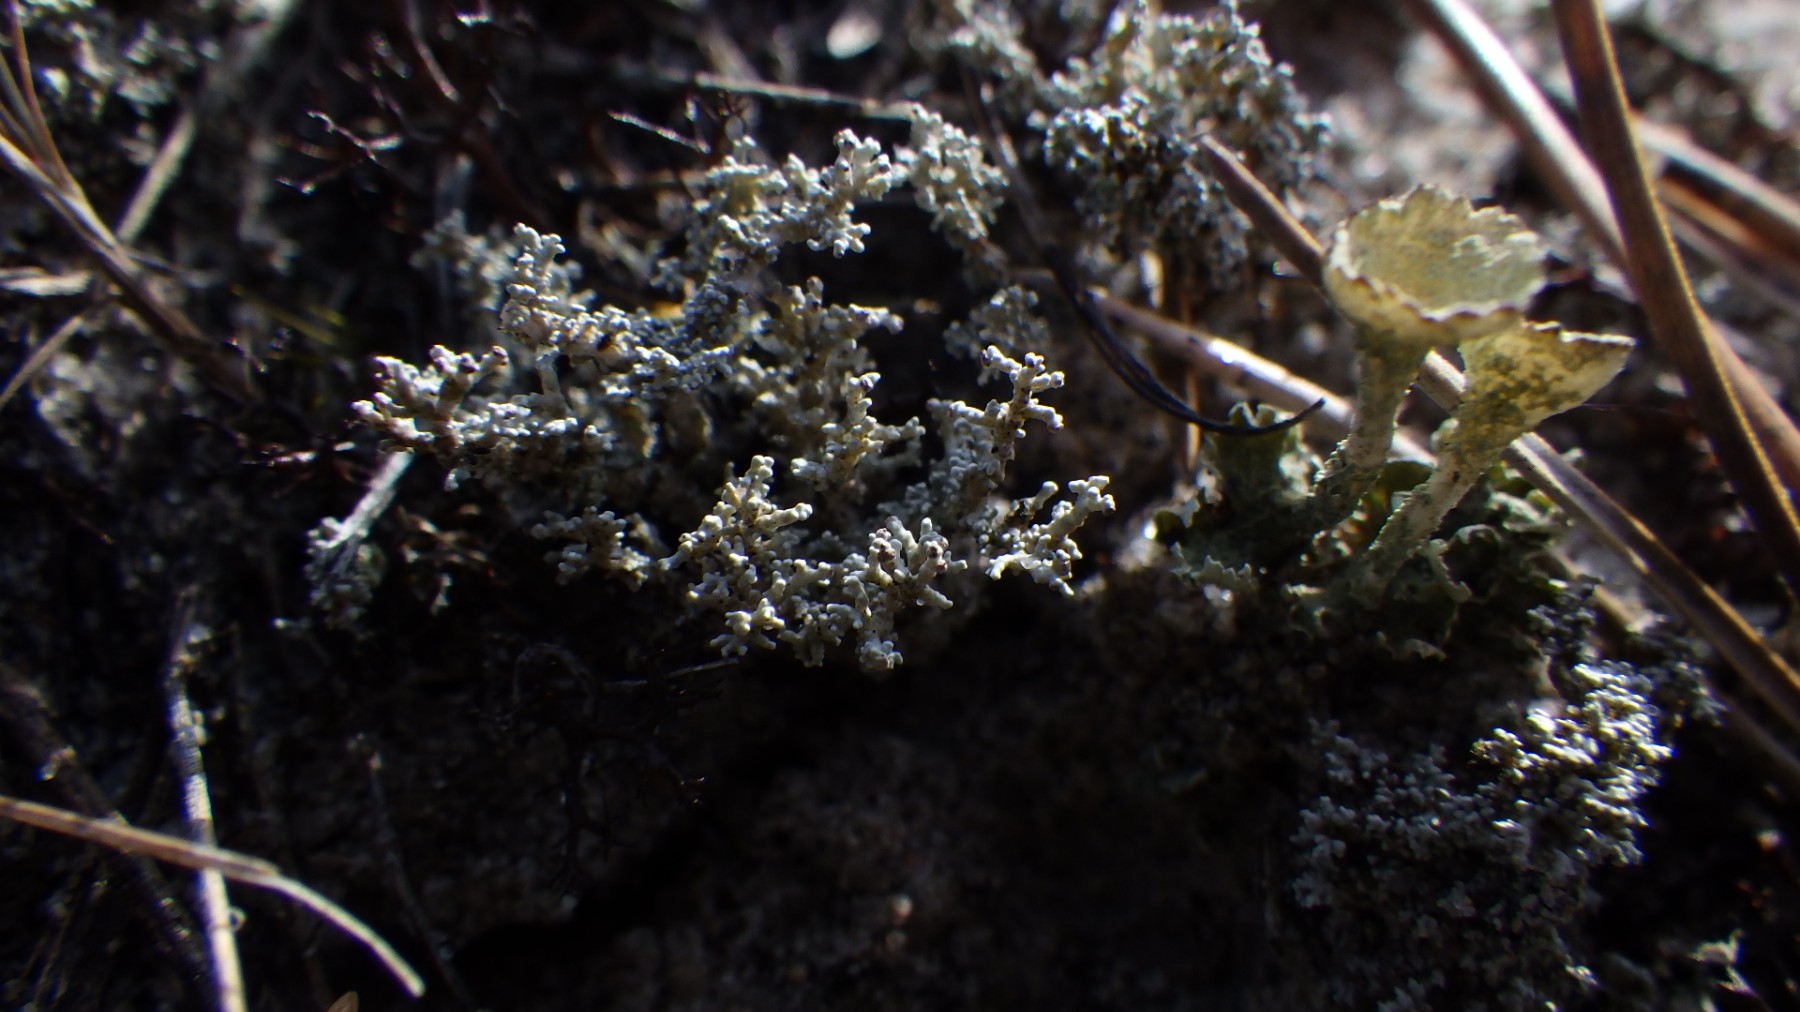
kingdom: Fungi
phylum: Ascomycota
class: Lecanoromycetes
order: Lecanorales
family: Stereocaulaceae
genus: Stereocaulon
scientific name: Stereocaulon saxatile
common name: klit-korallav
